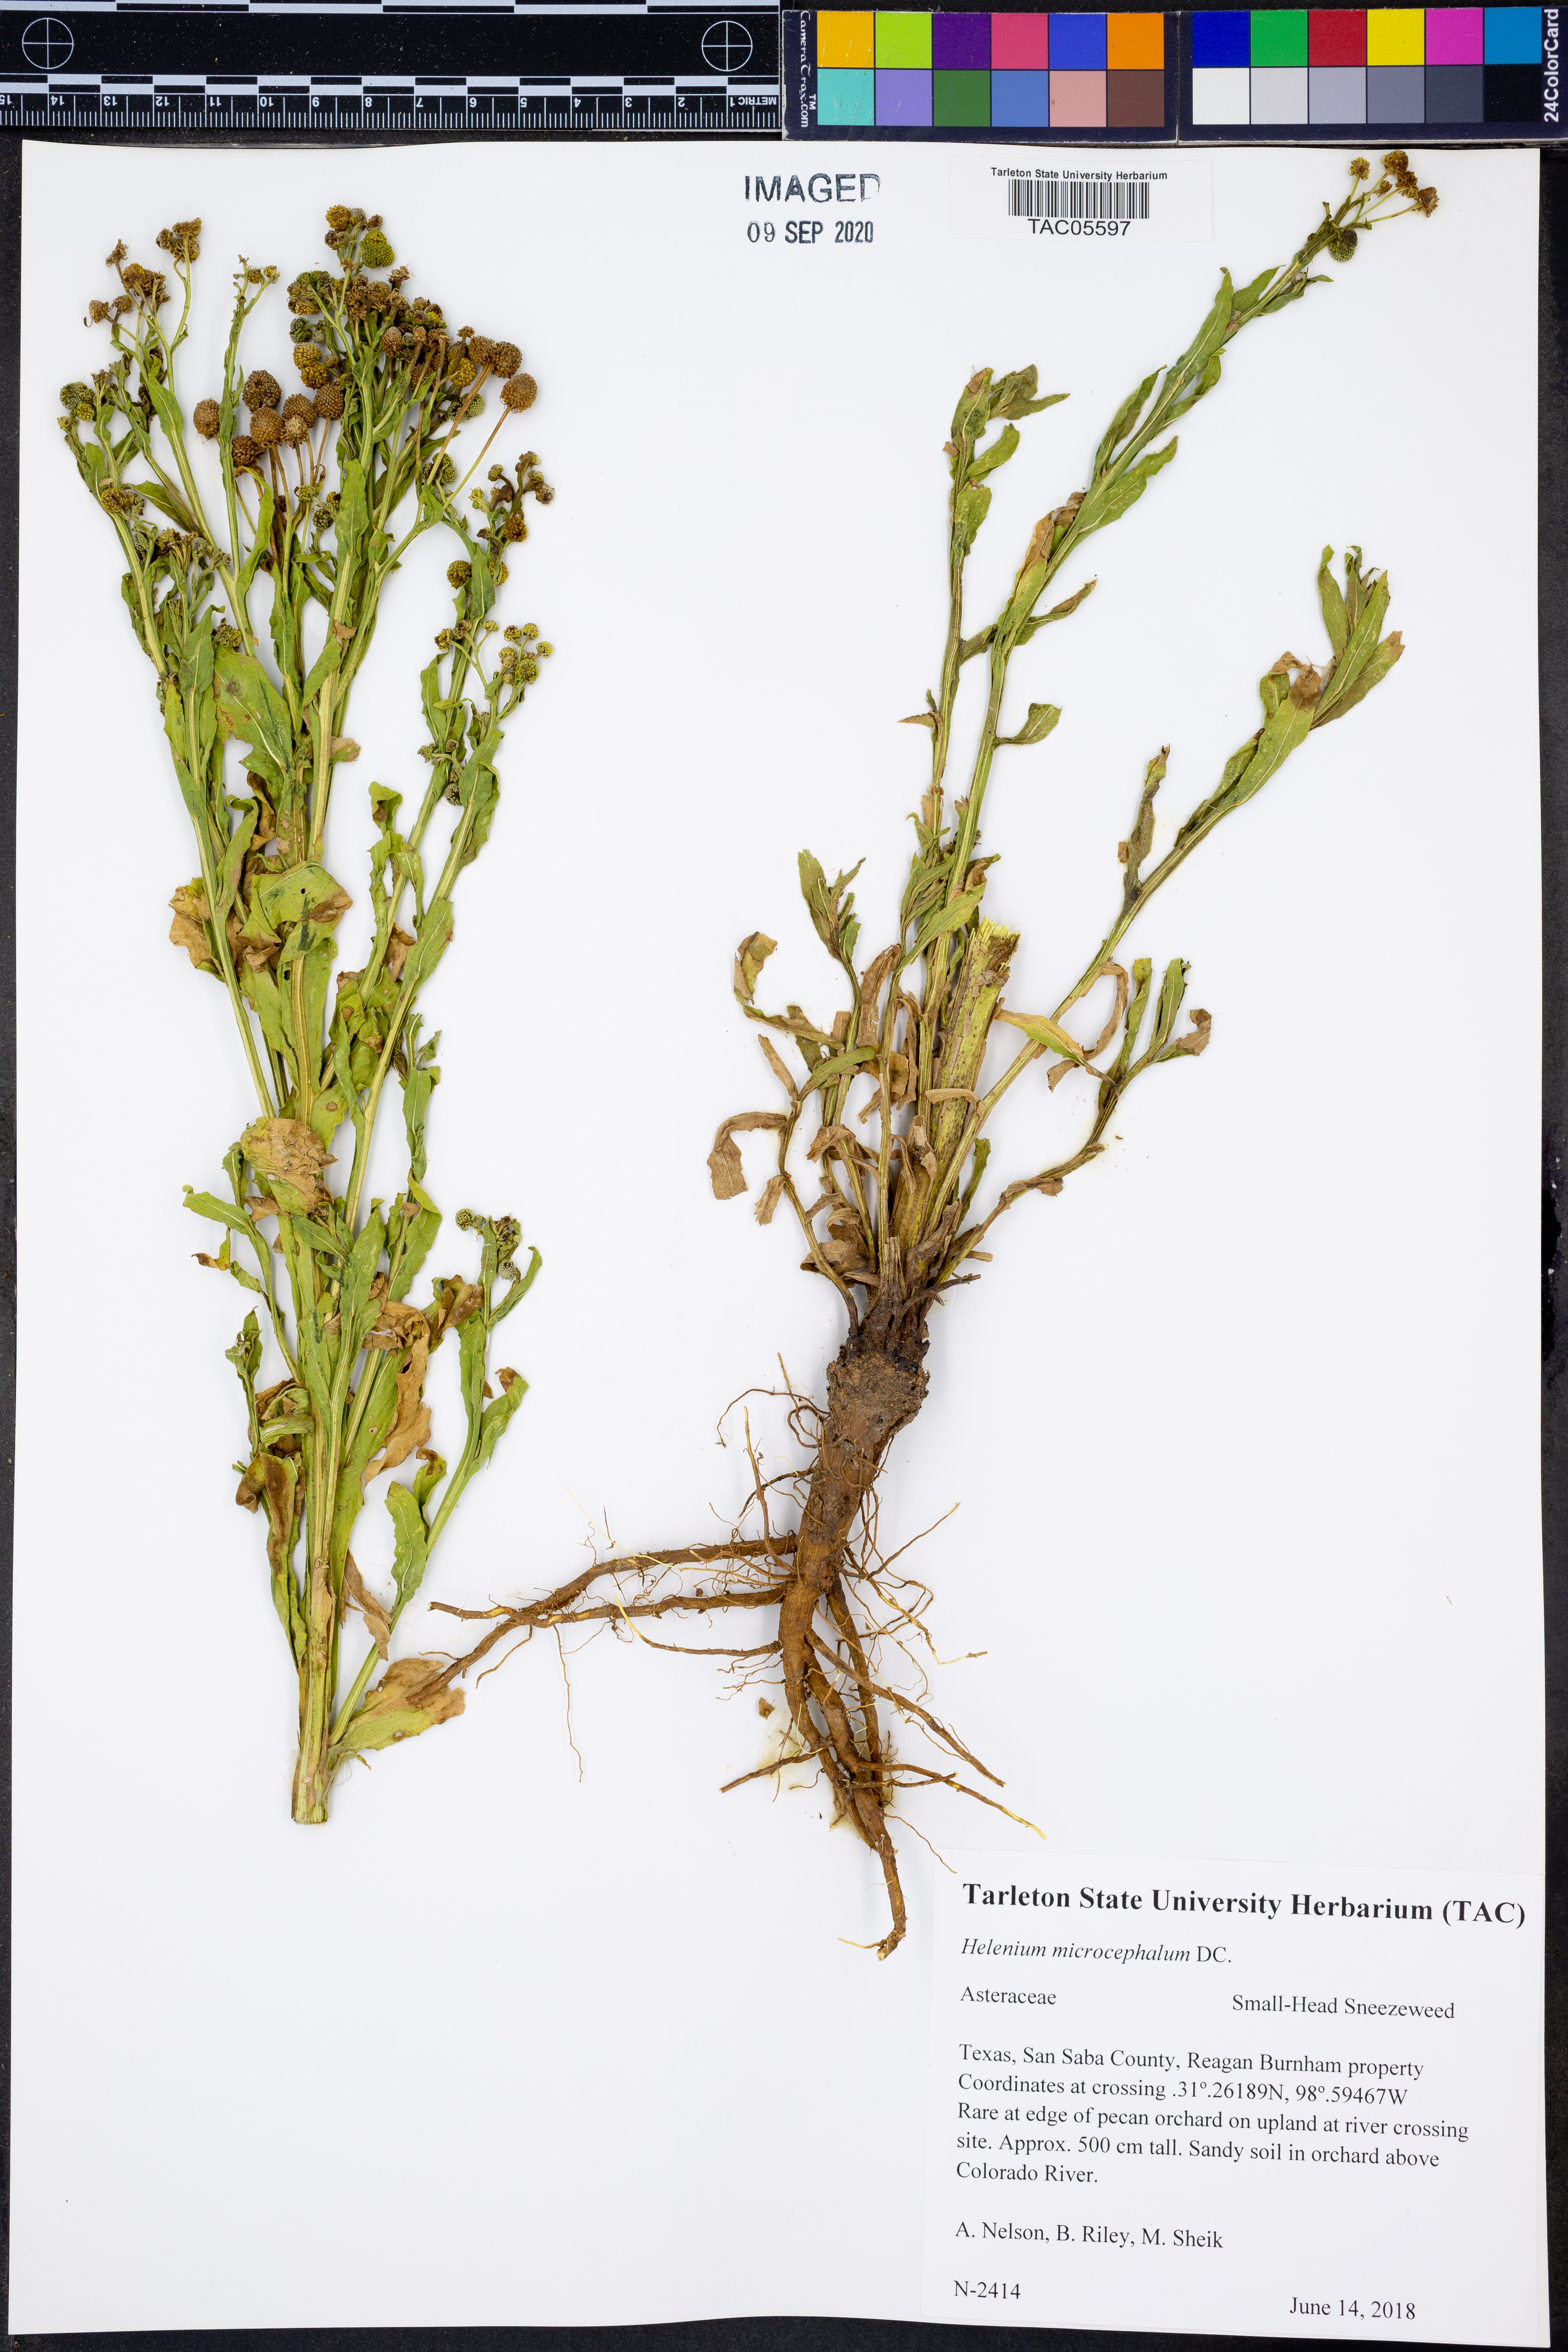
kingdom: Plantae
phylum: Tracheophyta
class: Magnoliopsida
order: Asterales
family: Asteraceae
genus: Helenium
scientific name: Helenium microcephalum
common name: Smallhead sneezeweed
